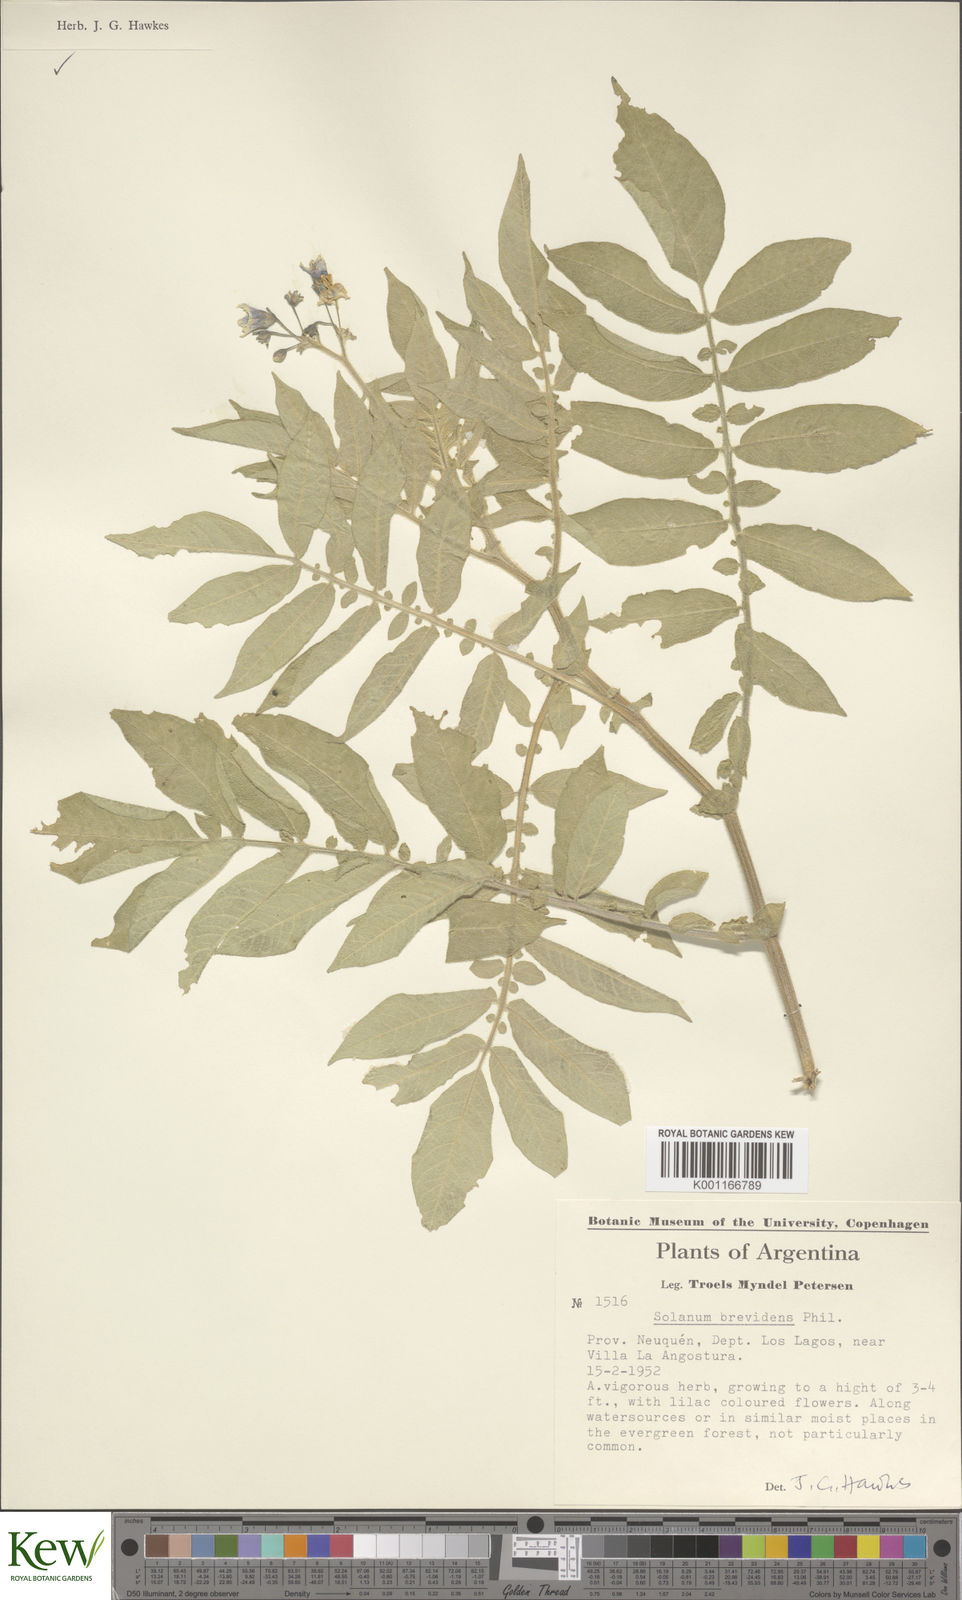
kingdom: Plantae
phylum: Tracheophyta
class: Magnoliopsida
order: Solanales
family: Solanaceae
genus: Solanum
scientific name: Solanum palustre
